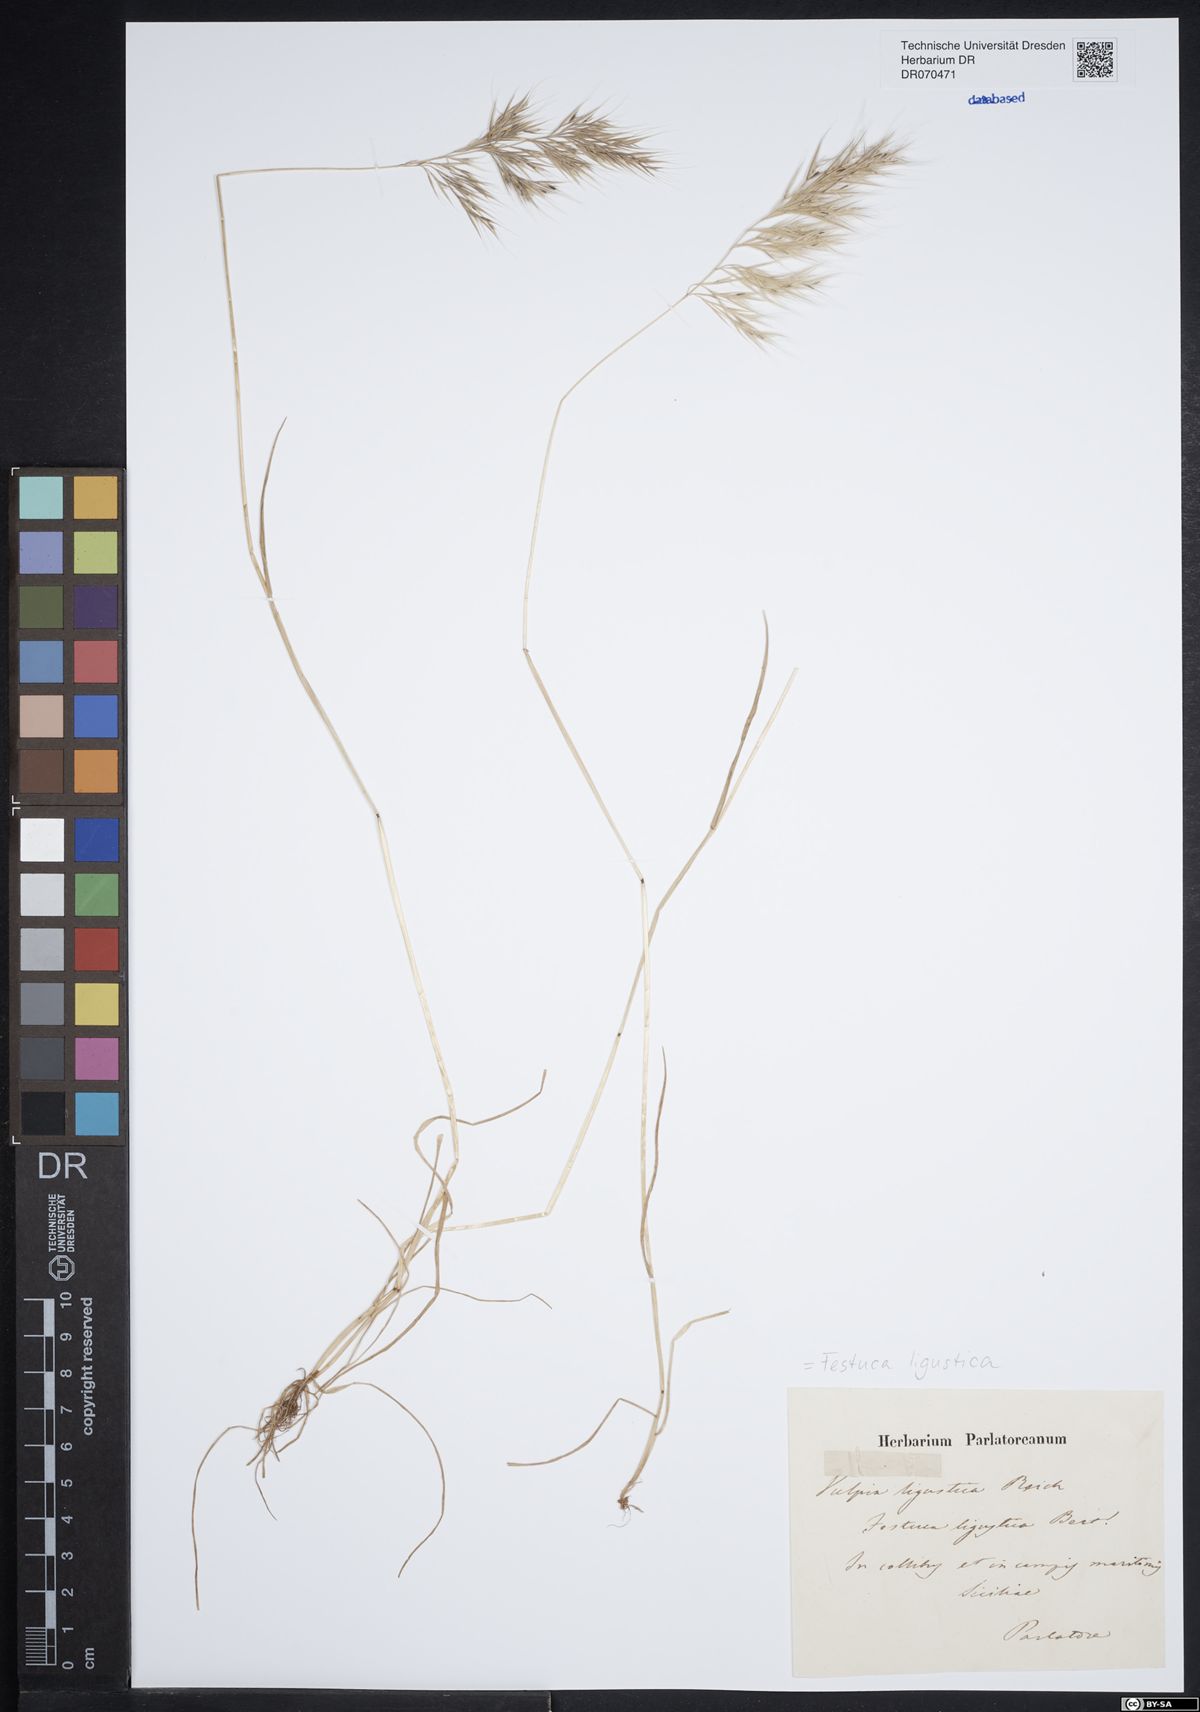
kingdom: Plantae
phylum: Tracheophyta
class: Liliopsida
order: Poales
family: Poaceae
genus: Festuca
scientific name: Festuca ligustica
